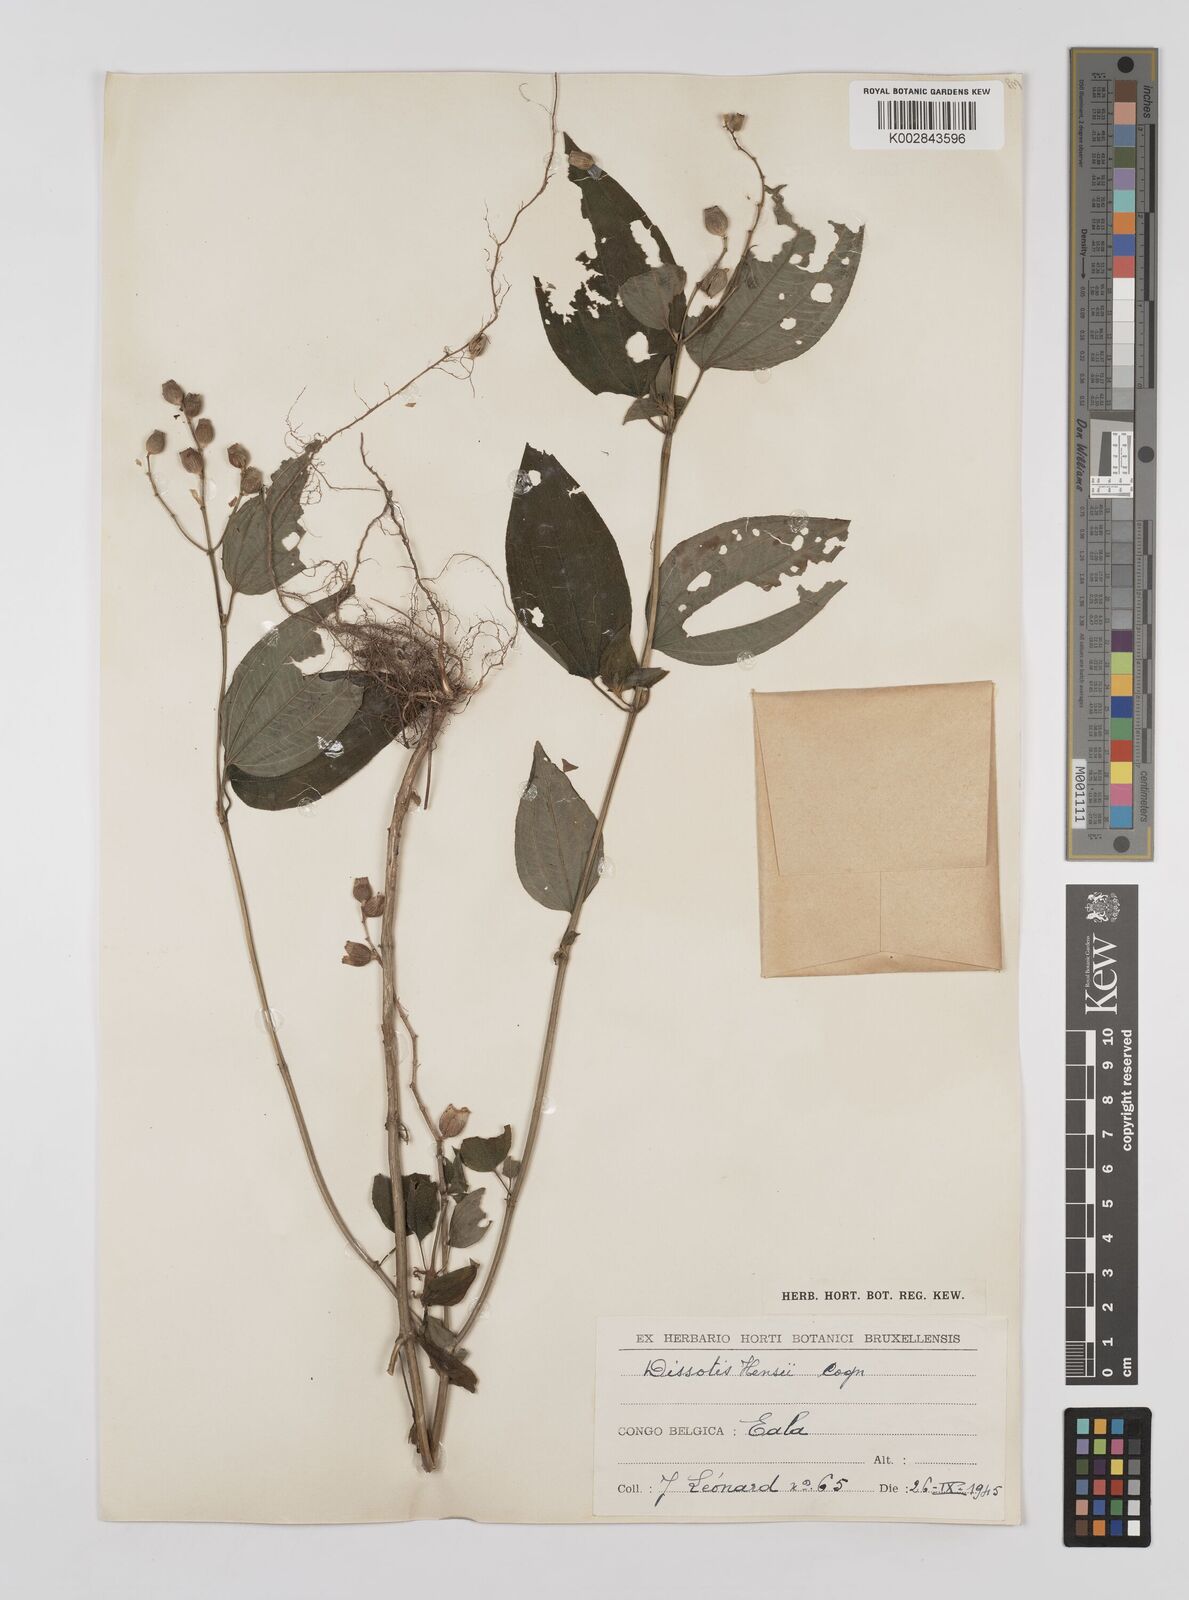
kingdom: Plantae
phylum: Tracheophyta
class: Magnoliopsida
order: Myrtales
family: Melastomataceae
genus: Dupineta
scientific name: Dupineta hensii
